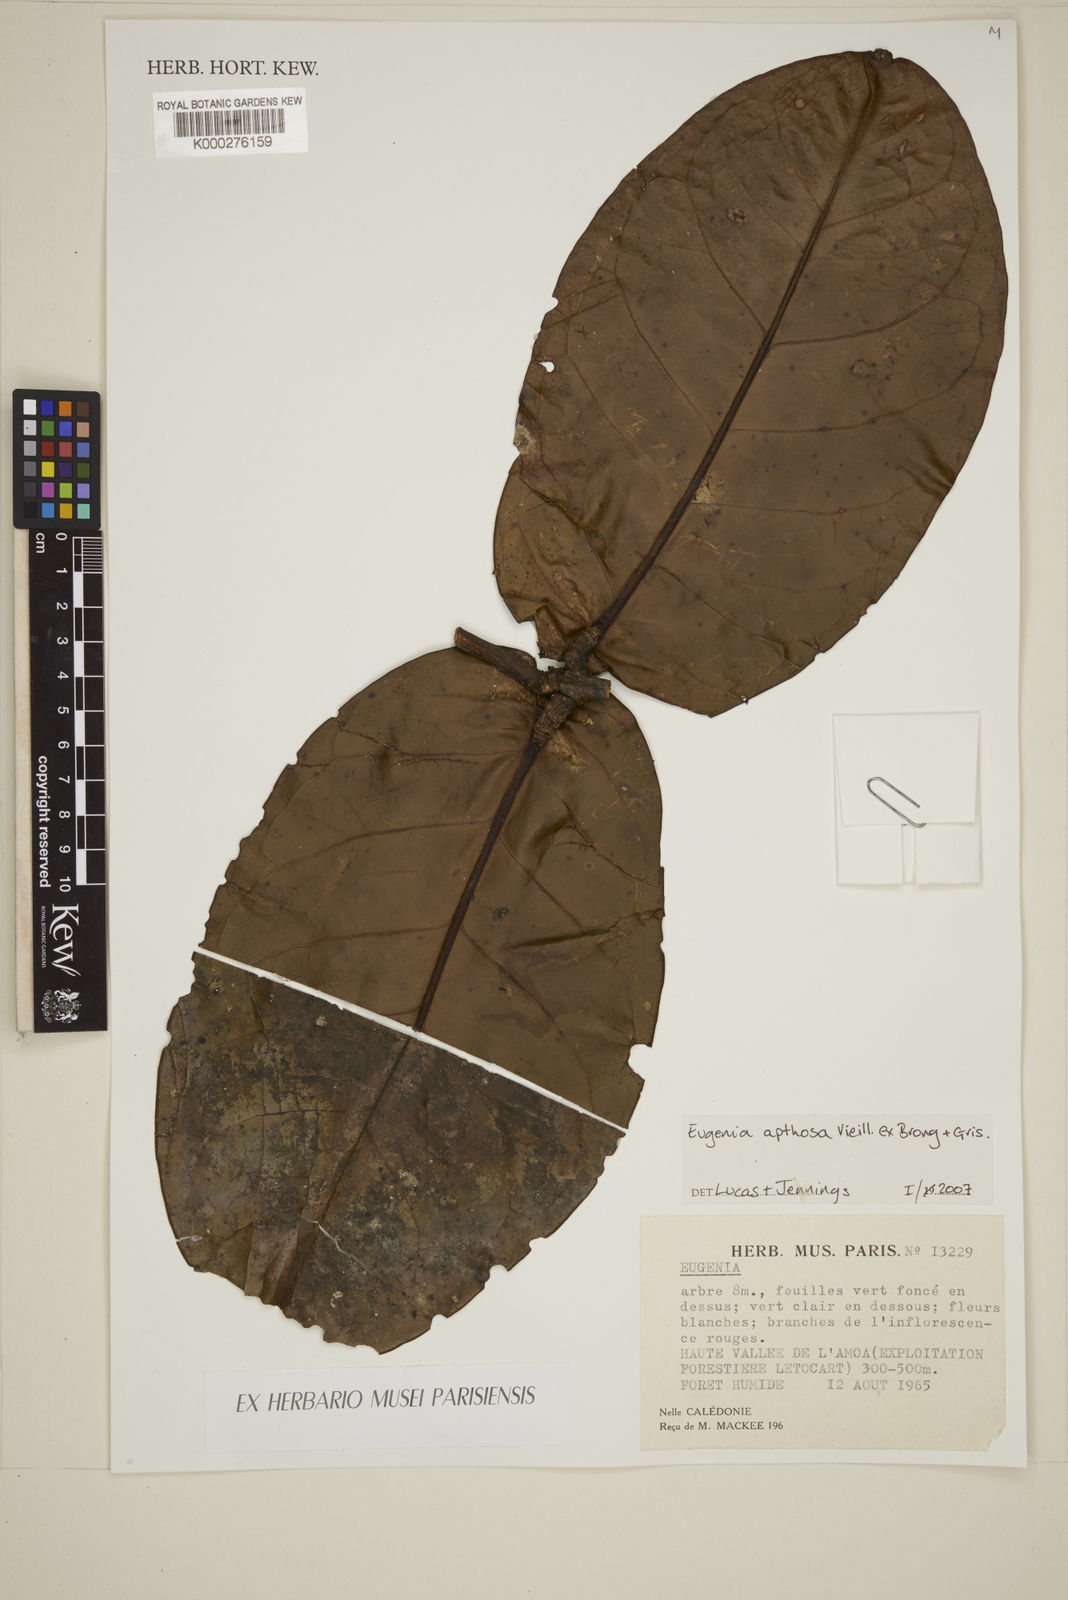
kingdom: Plantae
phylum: Tracheophyta
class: Magnoliopsida
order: Myrtales
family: Myrtaceae
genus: Gossia
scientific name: Gossia aphthosa
